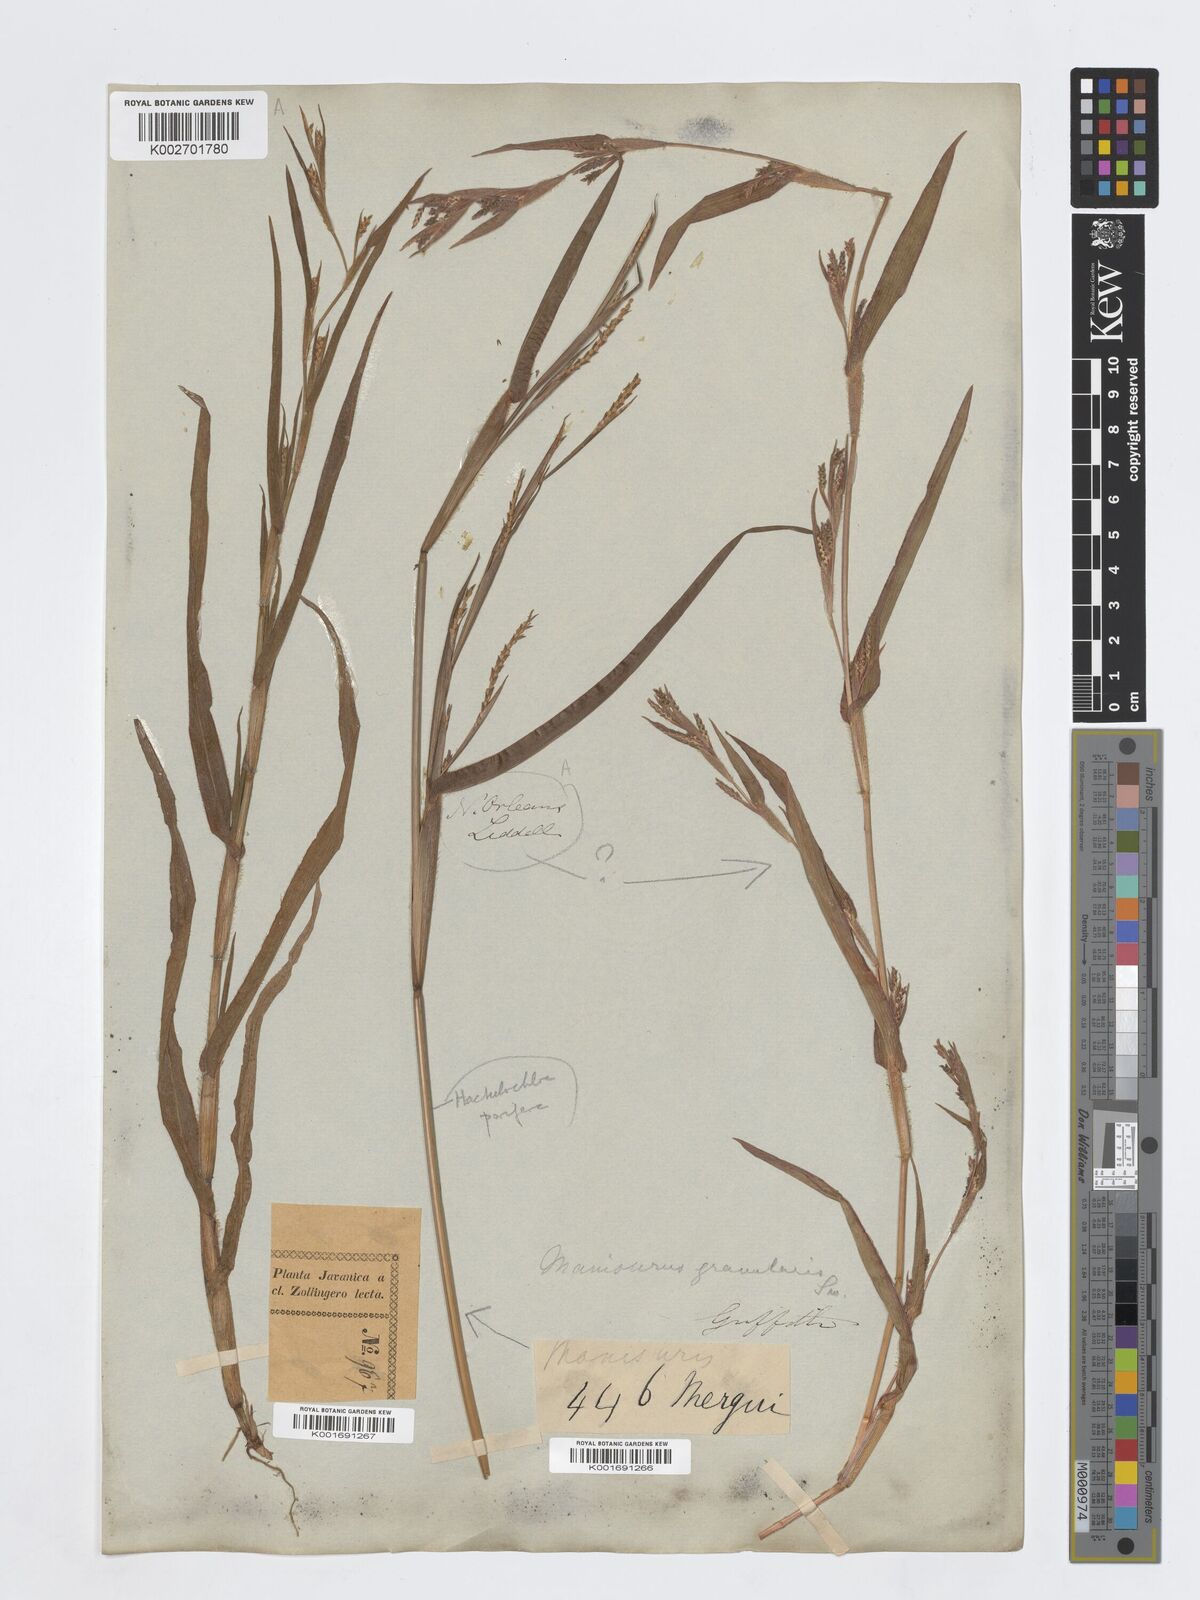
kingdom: Plantae
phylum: Tracheophyta
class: Liliopsida
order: Poales
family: Poaceae
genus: Hackelochloa
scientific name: Hackelochloa granularis
